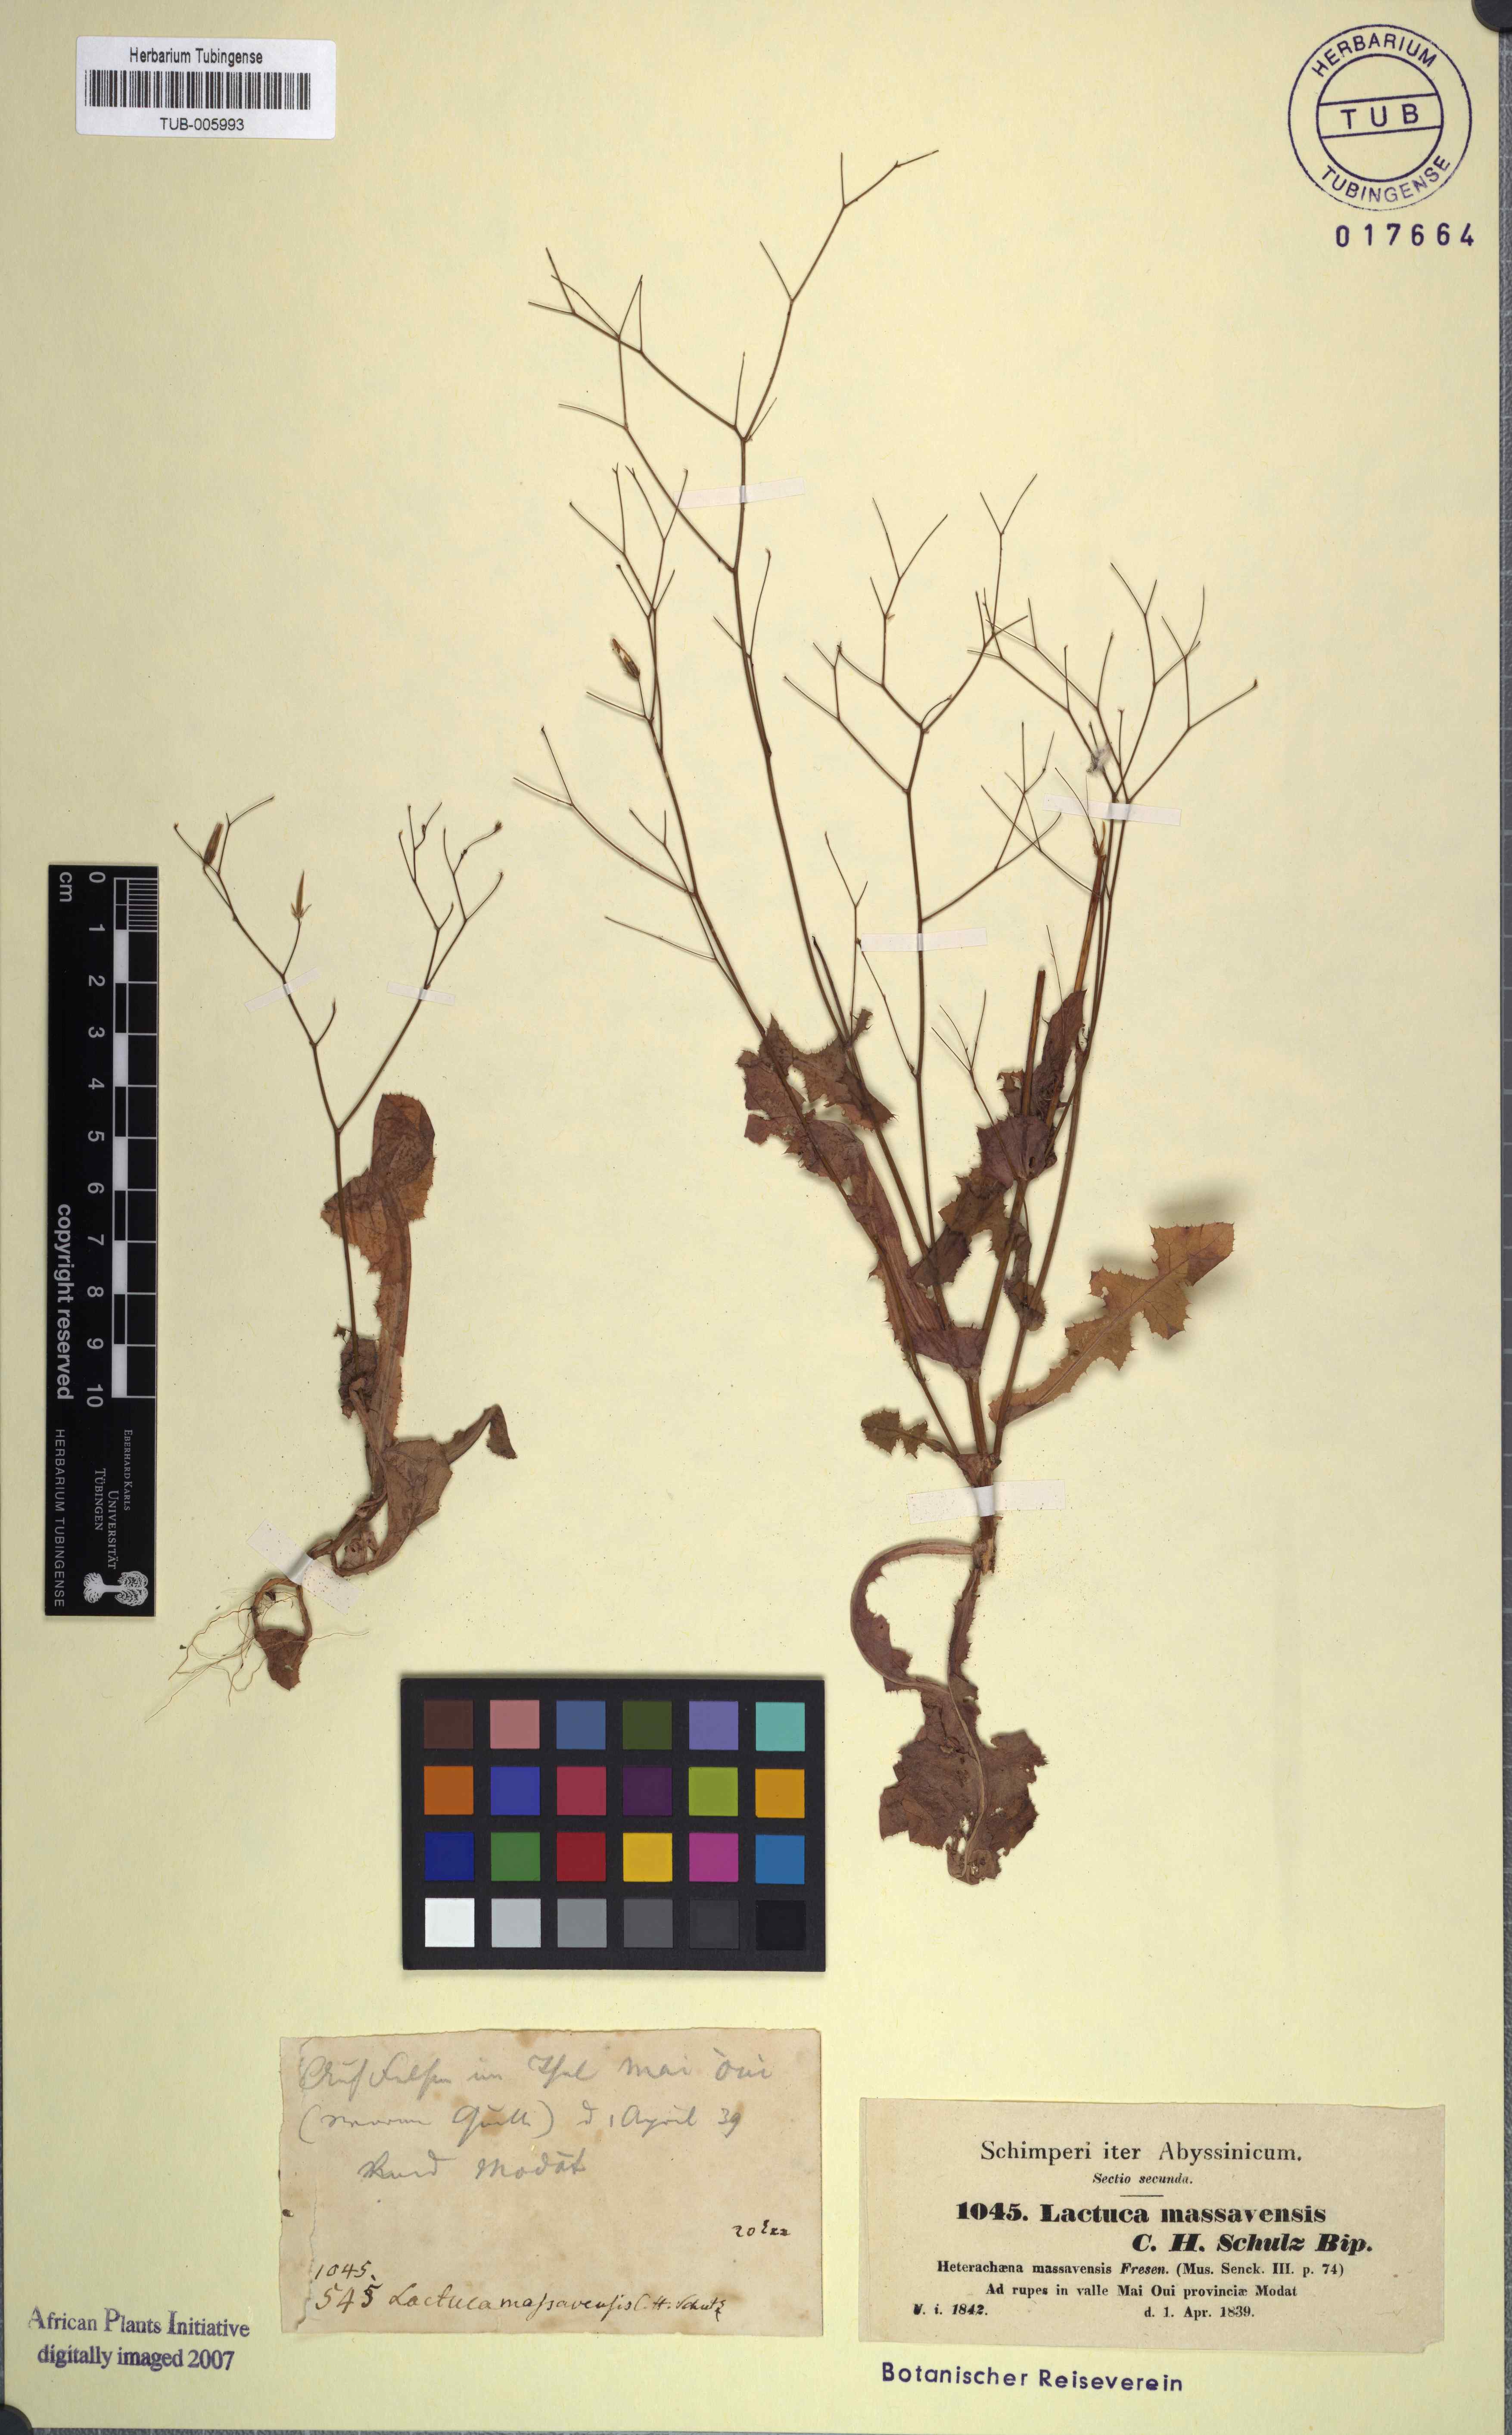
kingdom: Plantae
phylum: Tracheophyta
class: Magnoliopsida
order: Asterales
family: Asteraceae
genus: Lactuca
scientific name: Lactuca massaviensis
